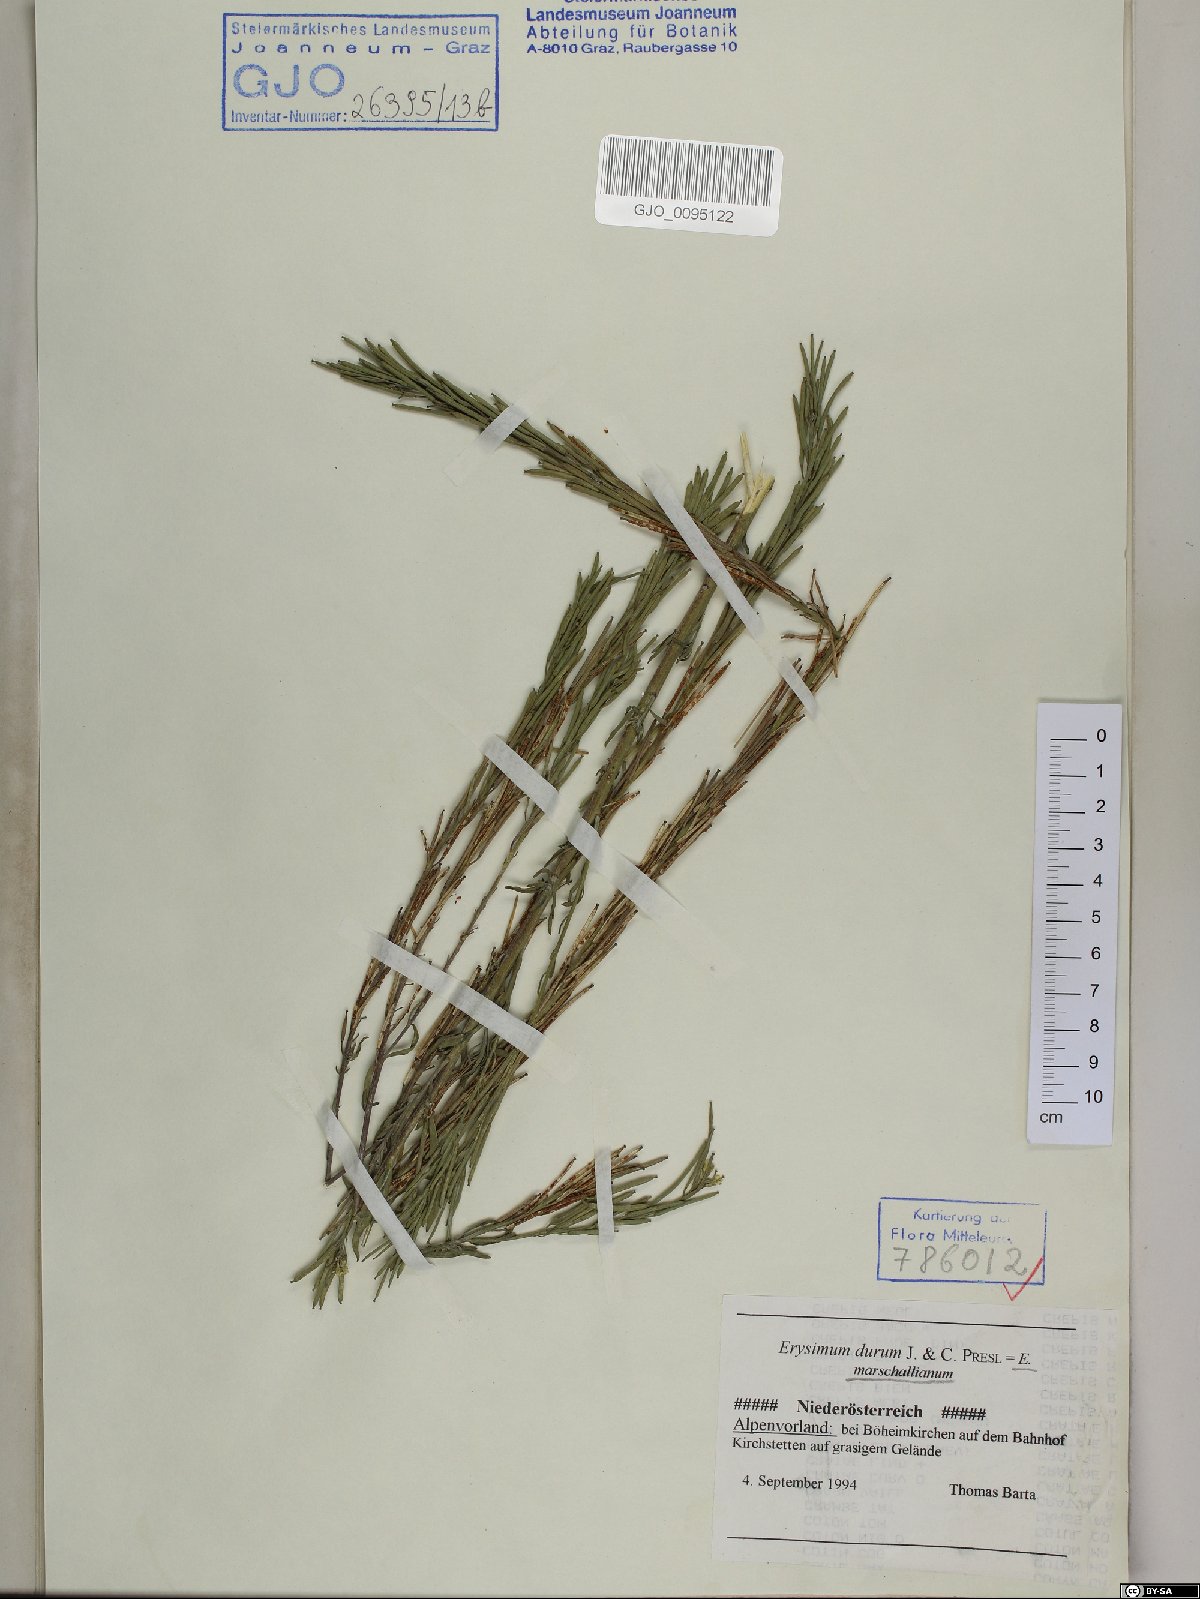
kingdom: Plantae
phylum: Tracheophyta
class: Magnoliopsida
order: Brassicales
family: Brassicaceae
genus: Erysimum
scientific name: Erysimum marschallianum
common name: Hard wallflower
